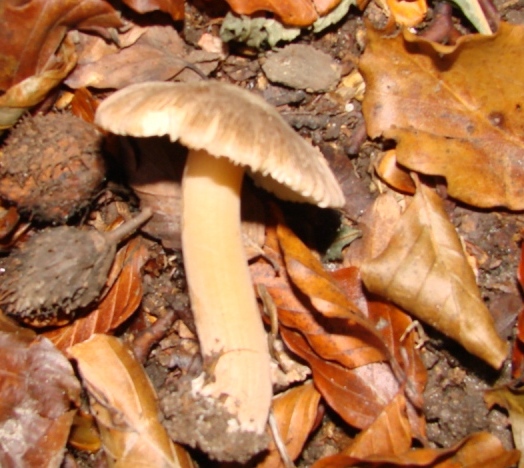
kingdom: Fungi
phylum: Basidiomycota
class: Agaricomycetes
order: Agaricales
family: Inocybaceae
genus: Inocybe
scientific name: Inocybe asterospora
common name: stjernesporet trævlhat
